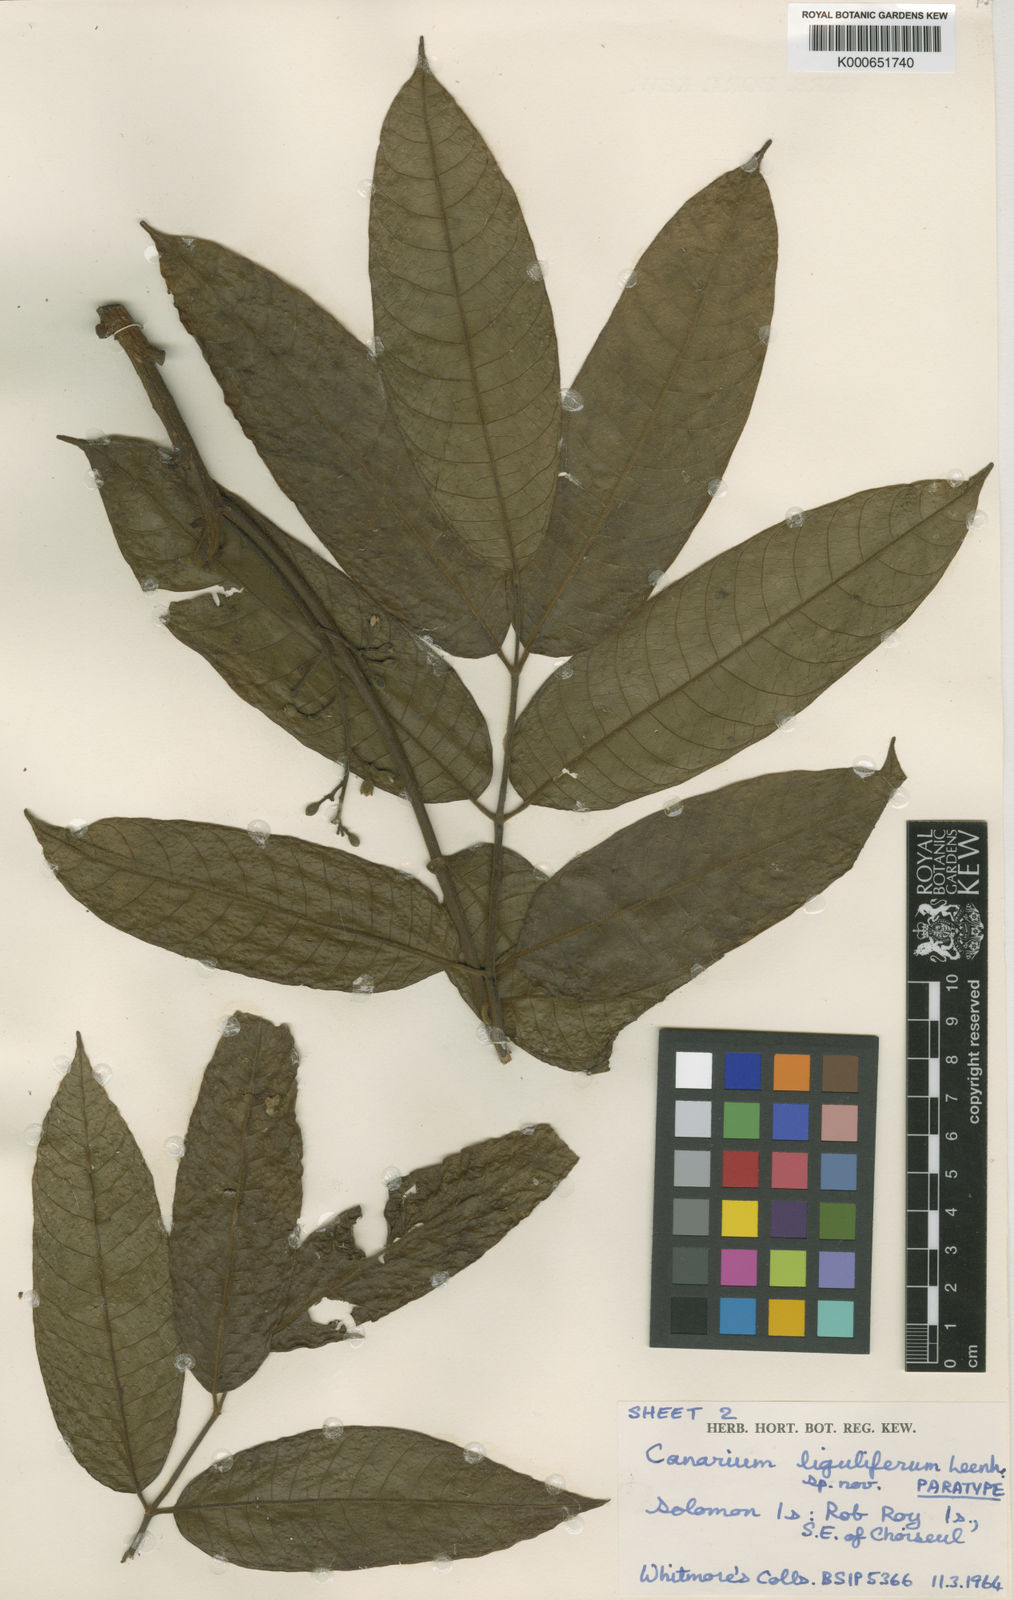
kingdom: Plantae
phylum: Tracheophyta
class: Magnoliopsida
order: Sapindales
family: Burseraceae
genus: Canarium
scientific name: Canarium liguliferum
